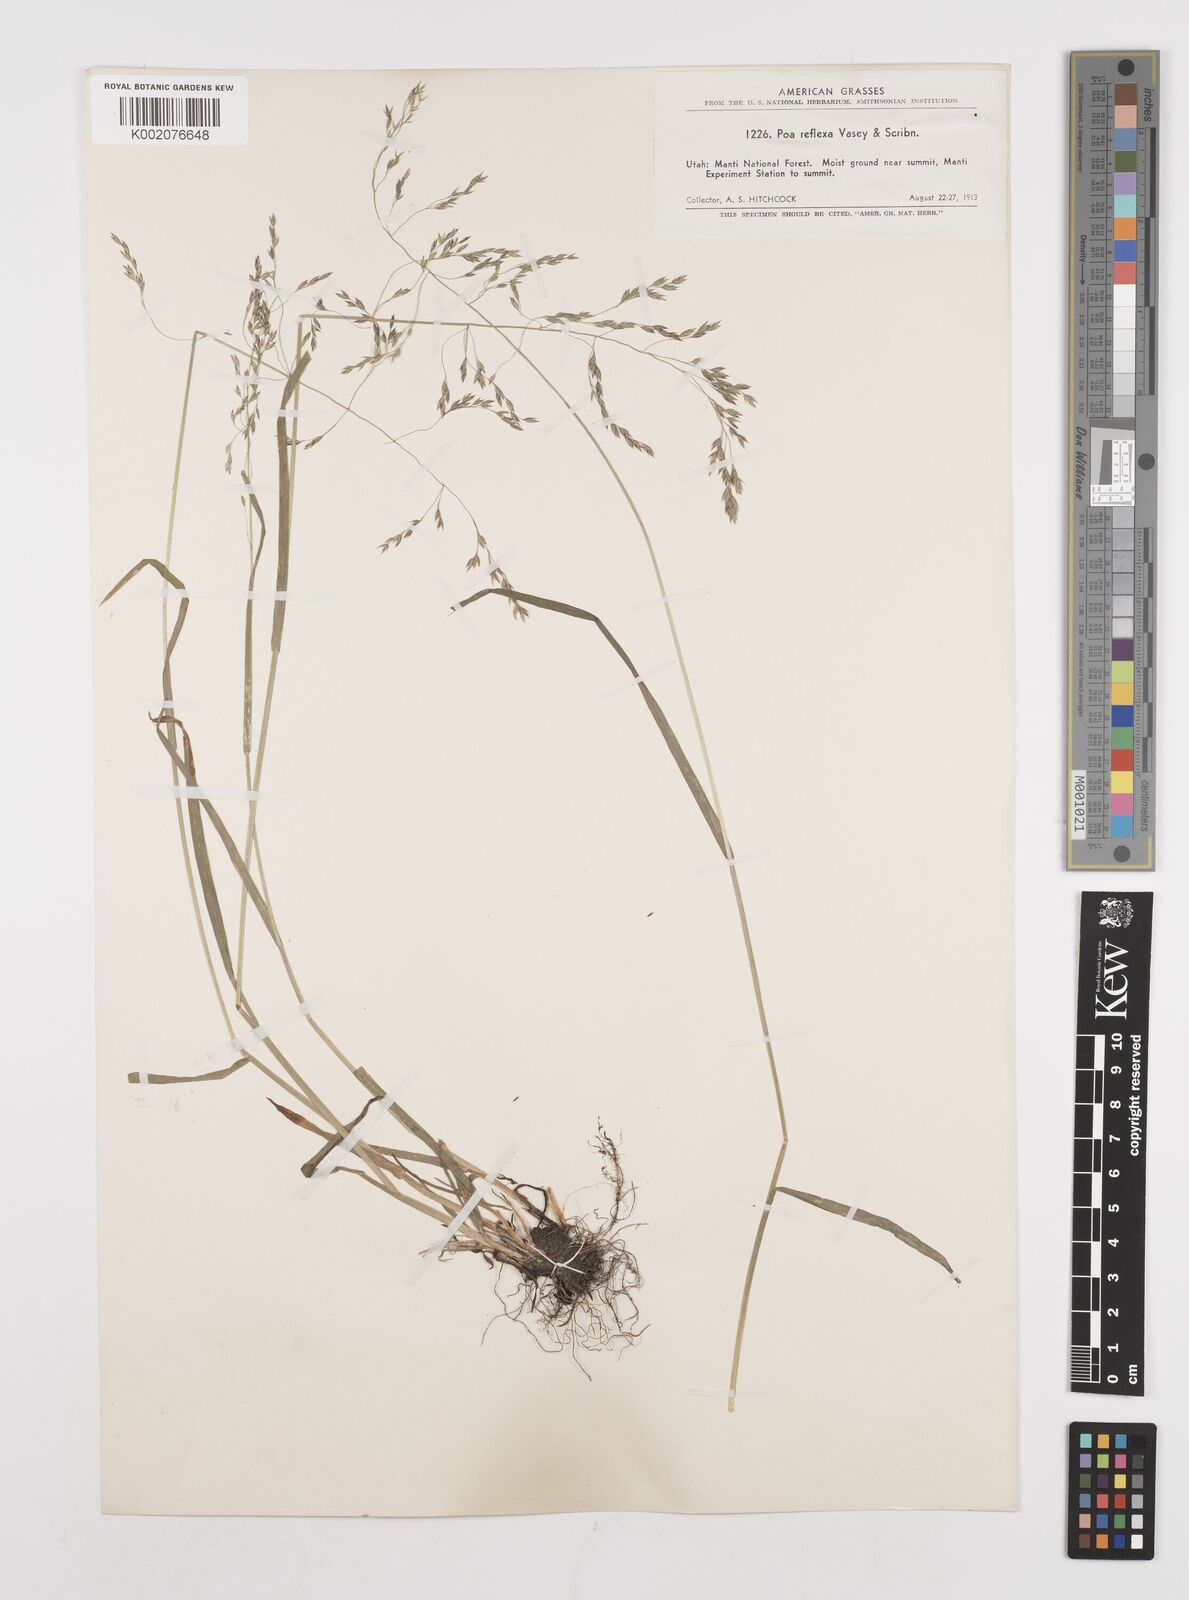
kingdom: Plantae
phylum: Tracheophyta
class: Liliopsida
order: Poales
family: Poaceae
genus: Poa
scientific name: Poa reflexa
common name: Nodding bluegrass
